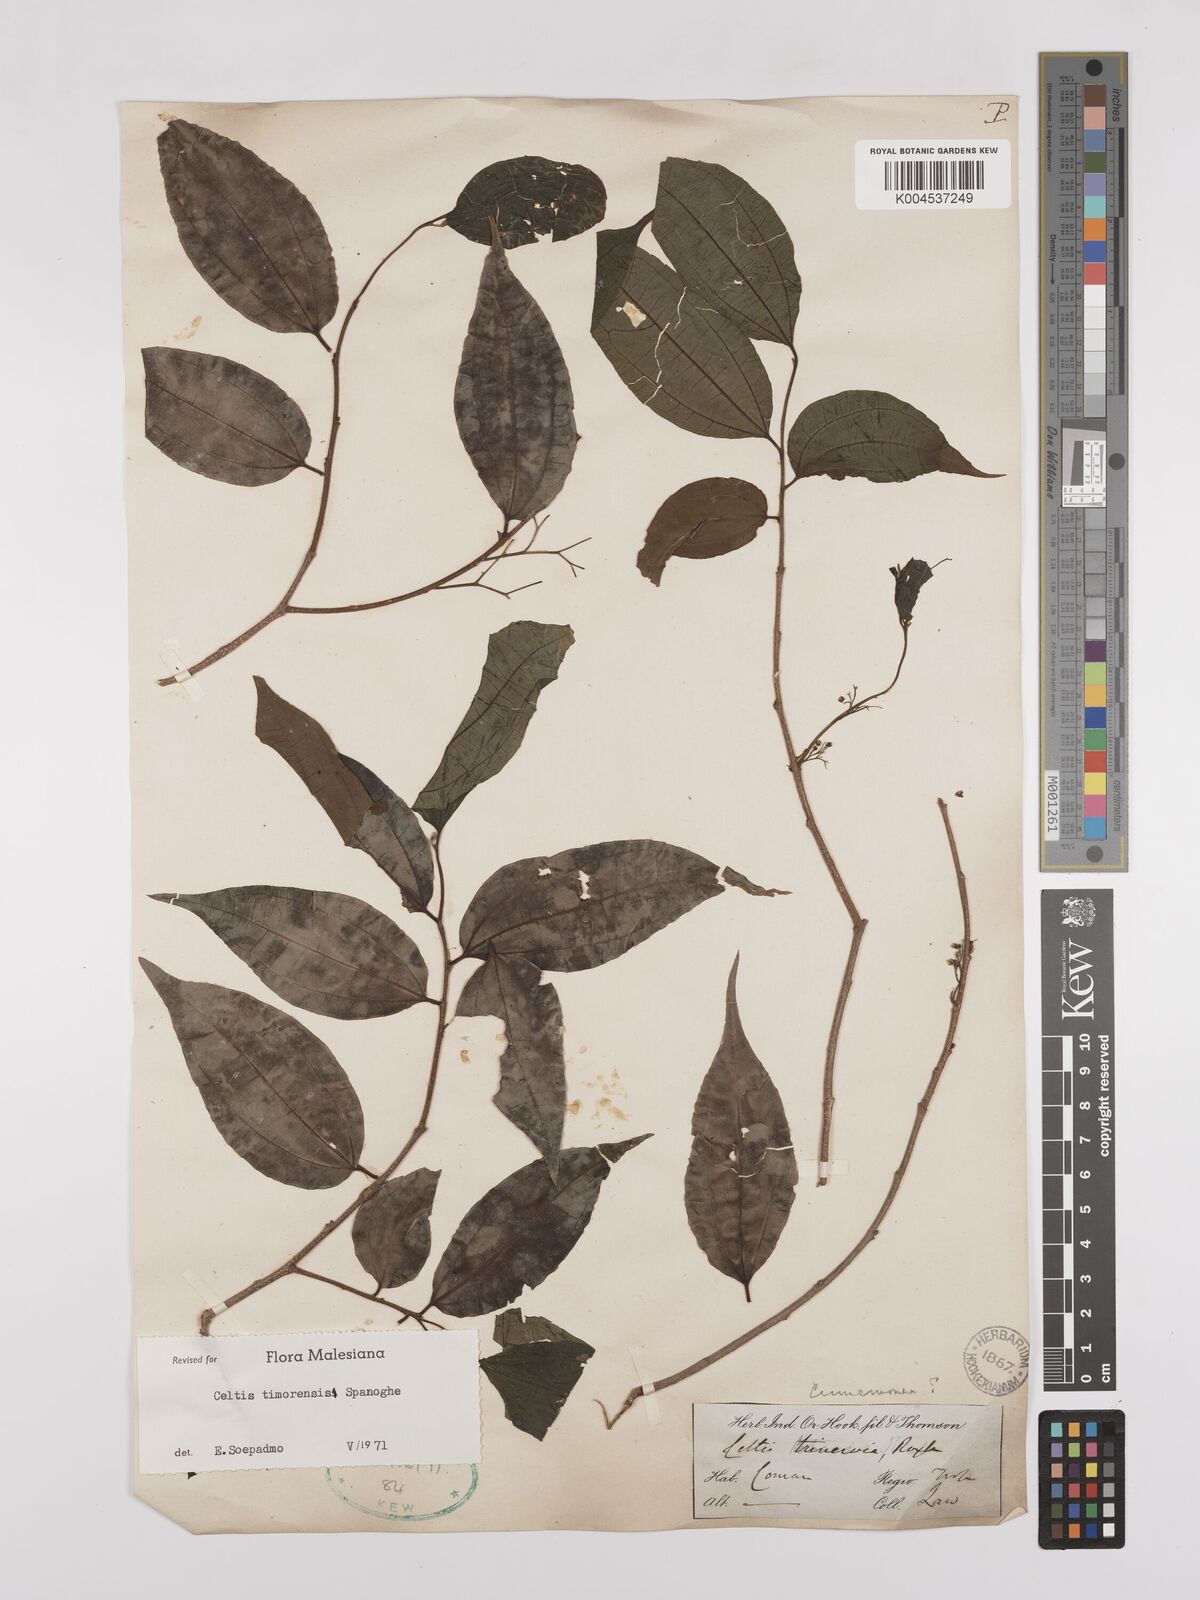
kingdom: Plantae
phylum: Tracheophyta
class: Magnoliopsida
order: Rosales
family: Cannabaceae
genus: Celtis
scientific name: Celtis timorensis
